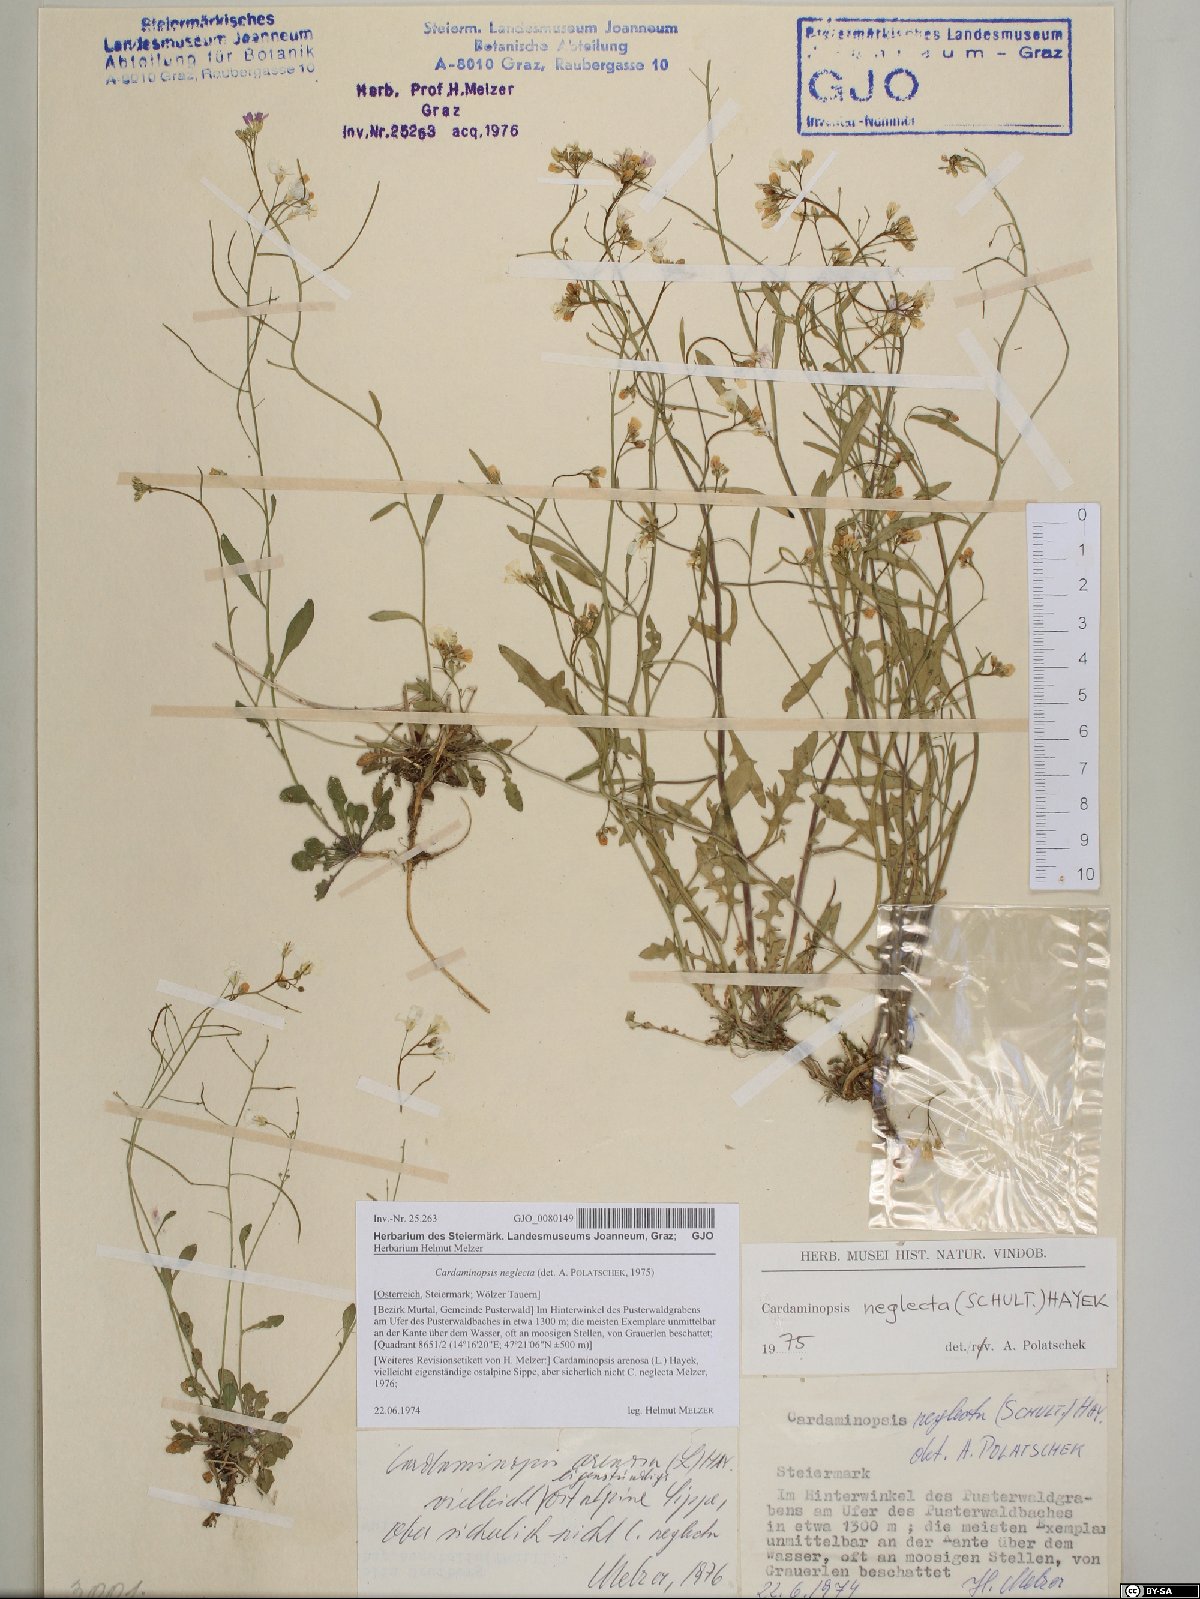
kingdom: Plantae
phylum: Tracheophyta
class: Magnoliopsida
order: Brassicales
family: Brassicaceae
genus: Arabidopsis
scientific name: Arabidopsis neglecta
